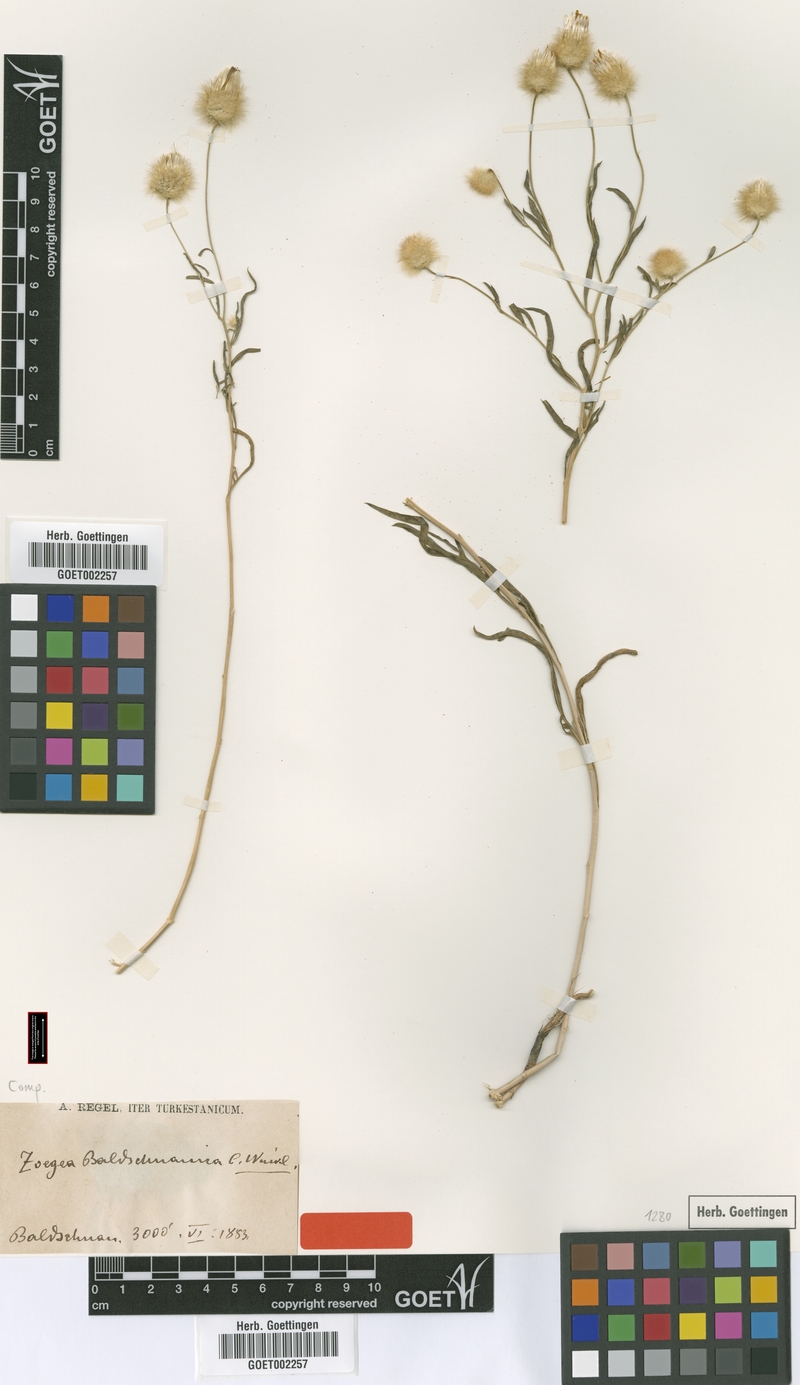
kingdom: Plantae
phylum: Tracheophyta
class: Magnoliopsida
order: Asterales
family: Asteraceae
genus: Zoegea
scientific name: Zoegea crinita
